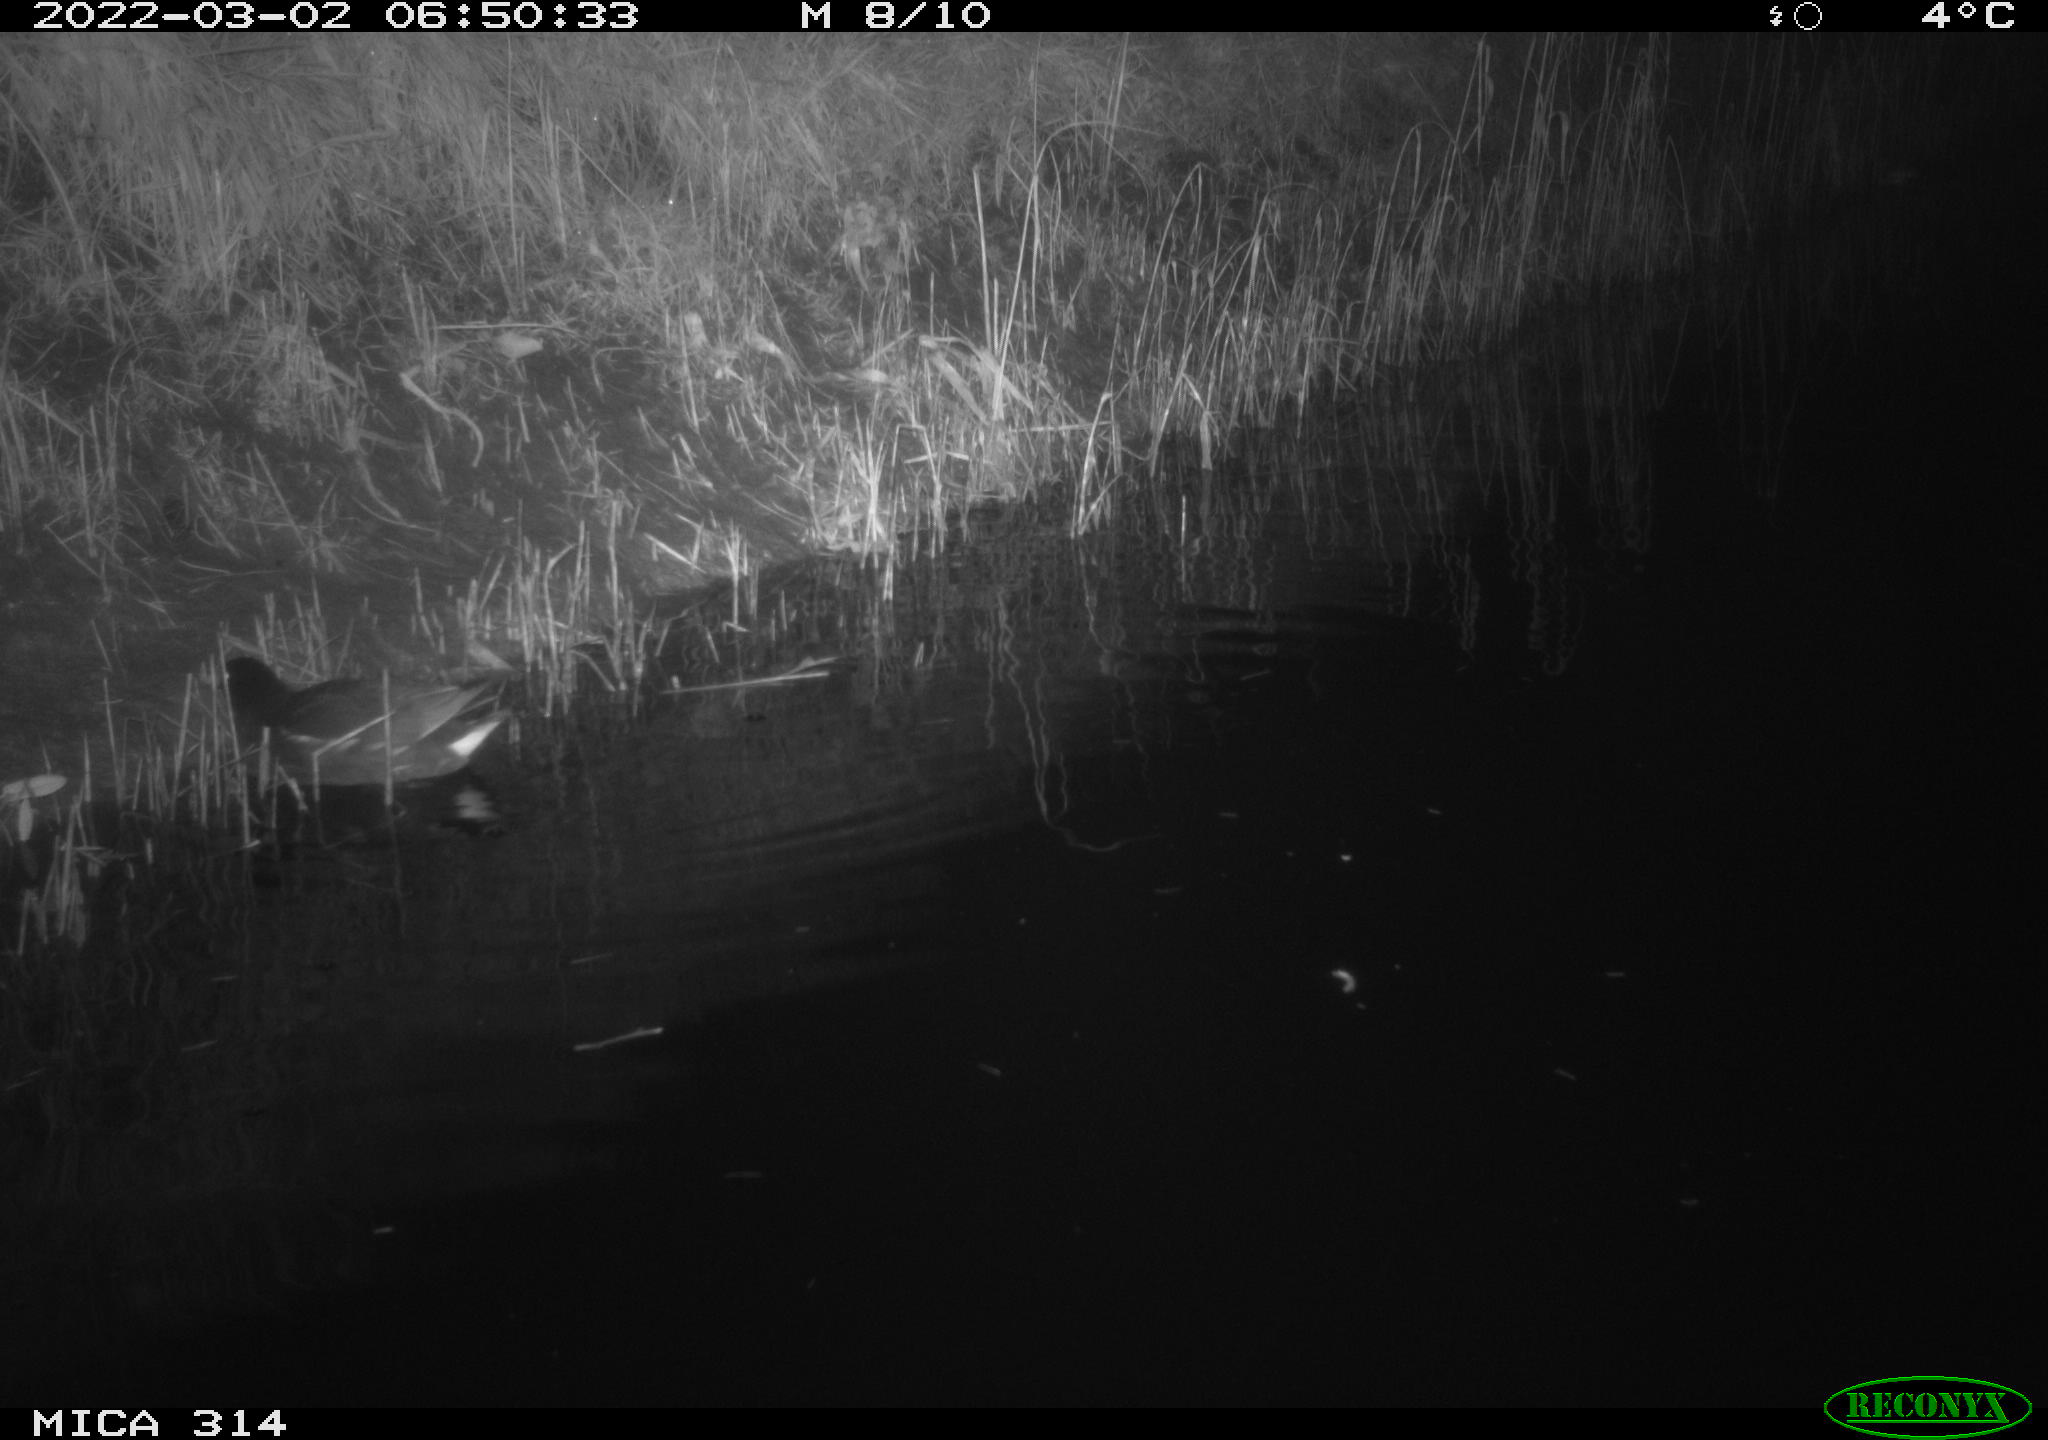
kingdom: Animalia
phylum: Chordata
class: Aves
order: Gruiformes
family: Rallidae
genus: Gallinula
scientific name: Gallinula chloropus
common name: Common moorhen
